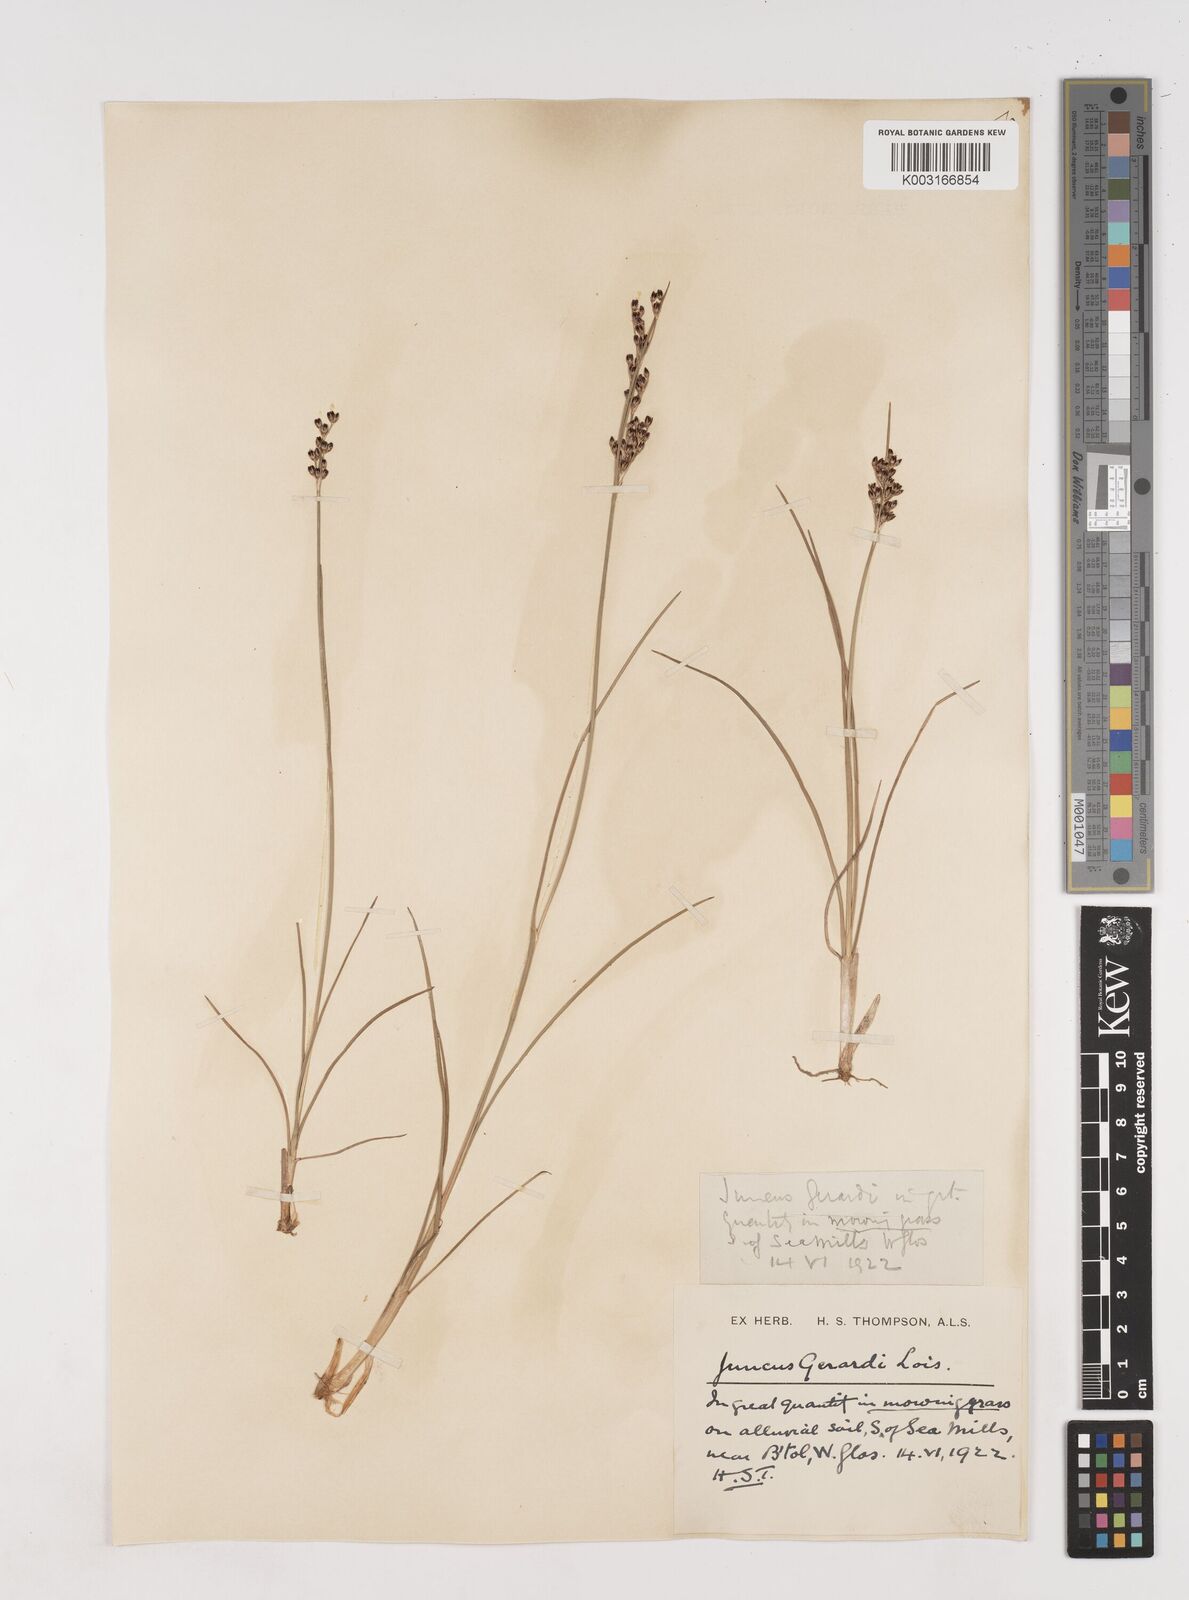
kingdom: Plantae
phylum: Tracheophyta
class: Liliopsida
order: Poales
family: Juncaceae
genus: Juncus
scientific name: Juncus gerardi
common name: Saltmarsh rush
